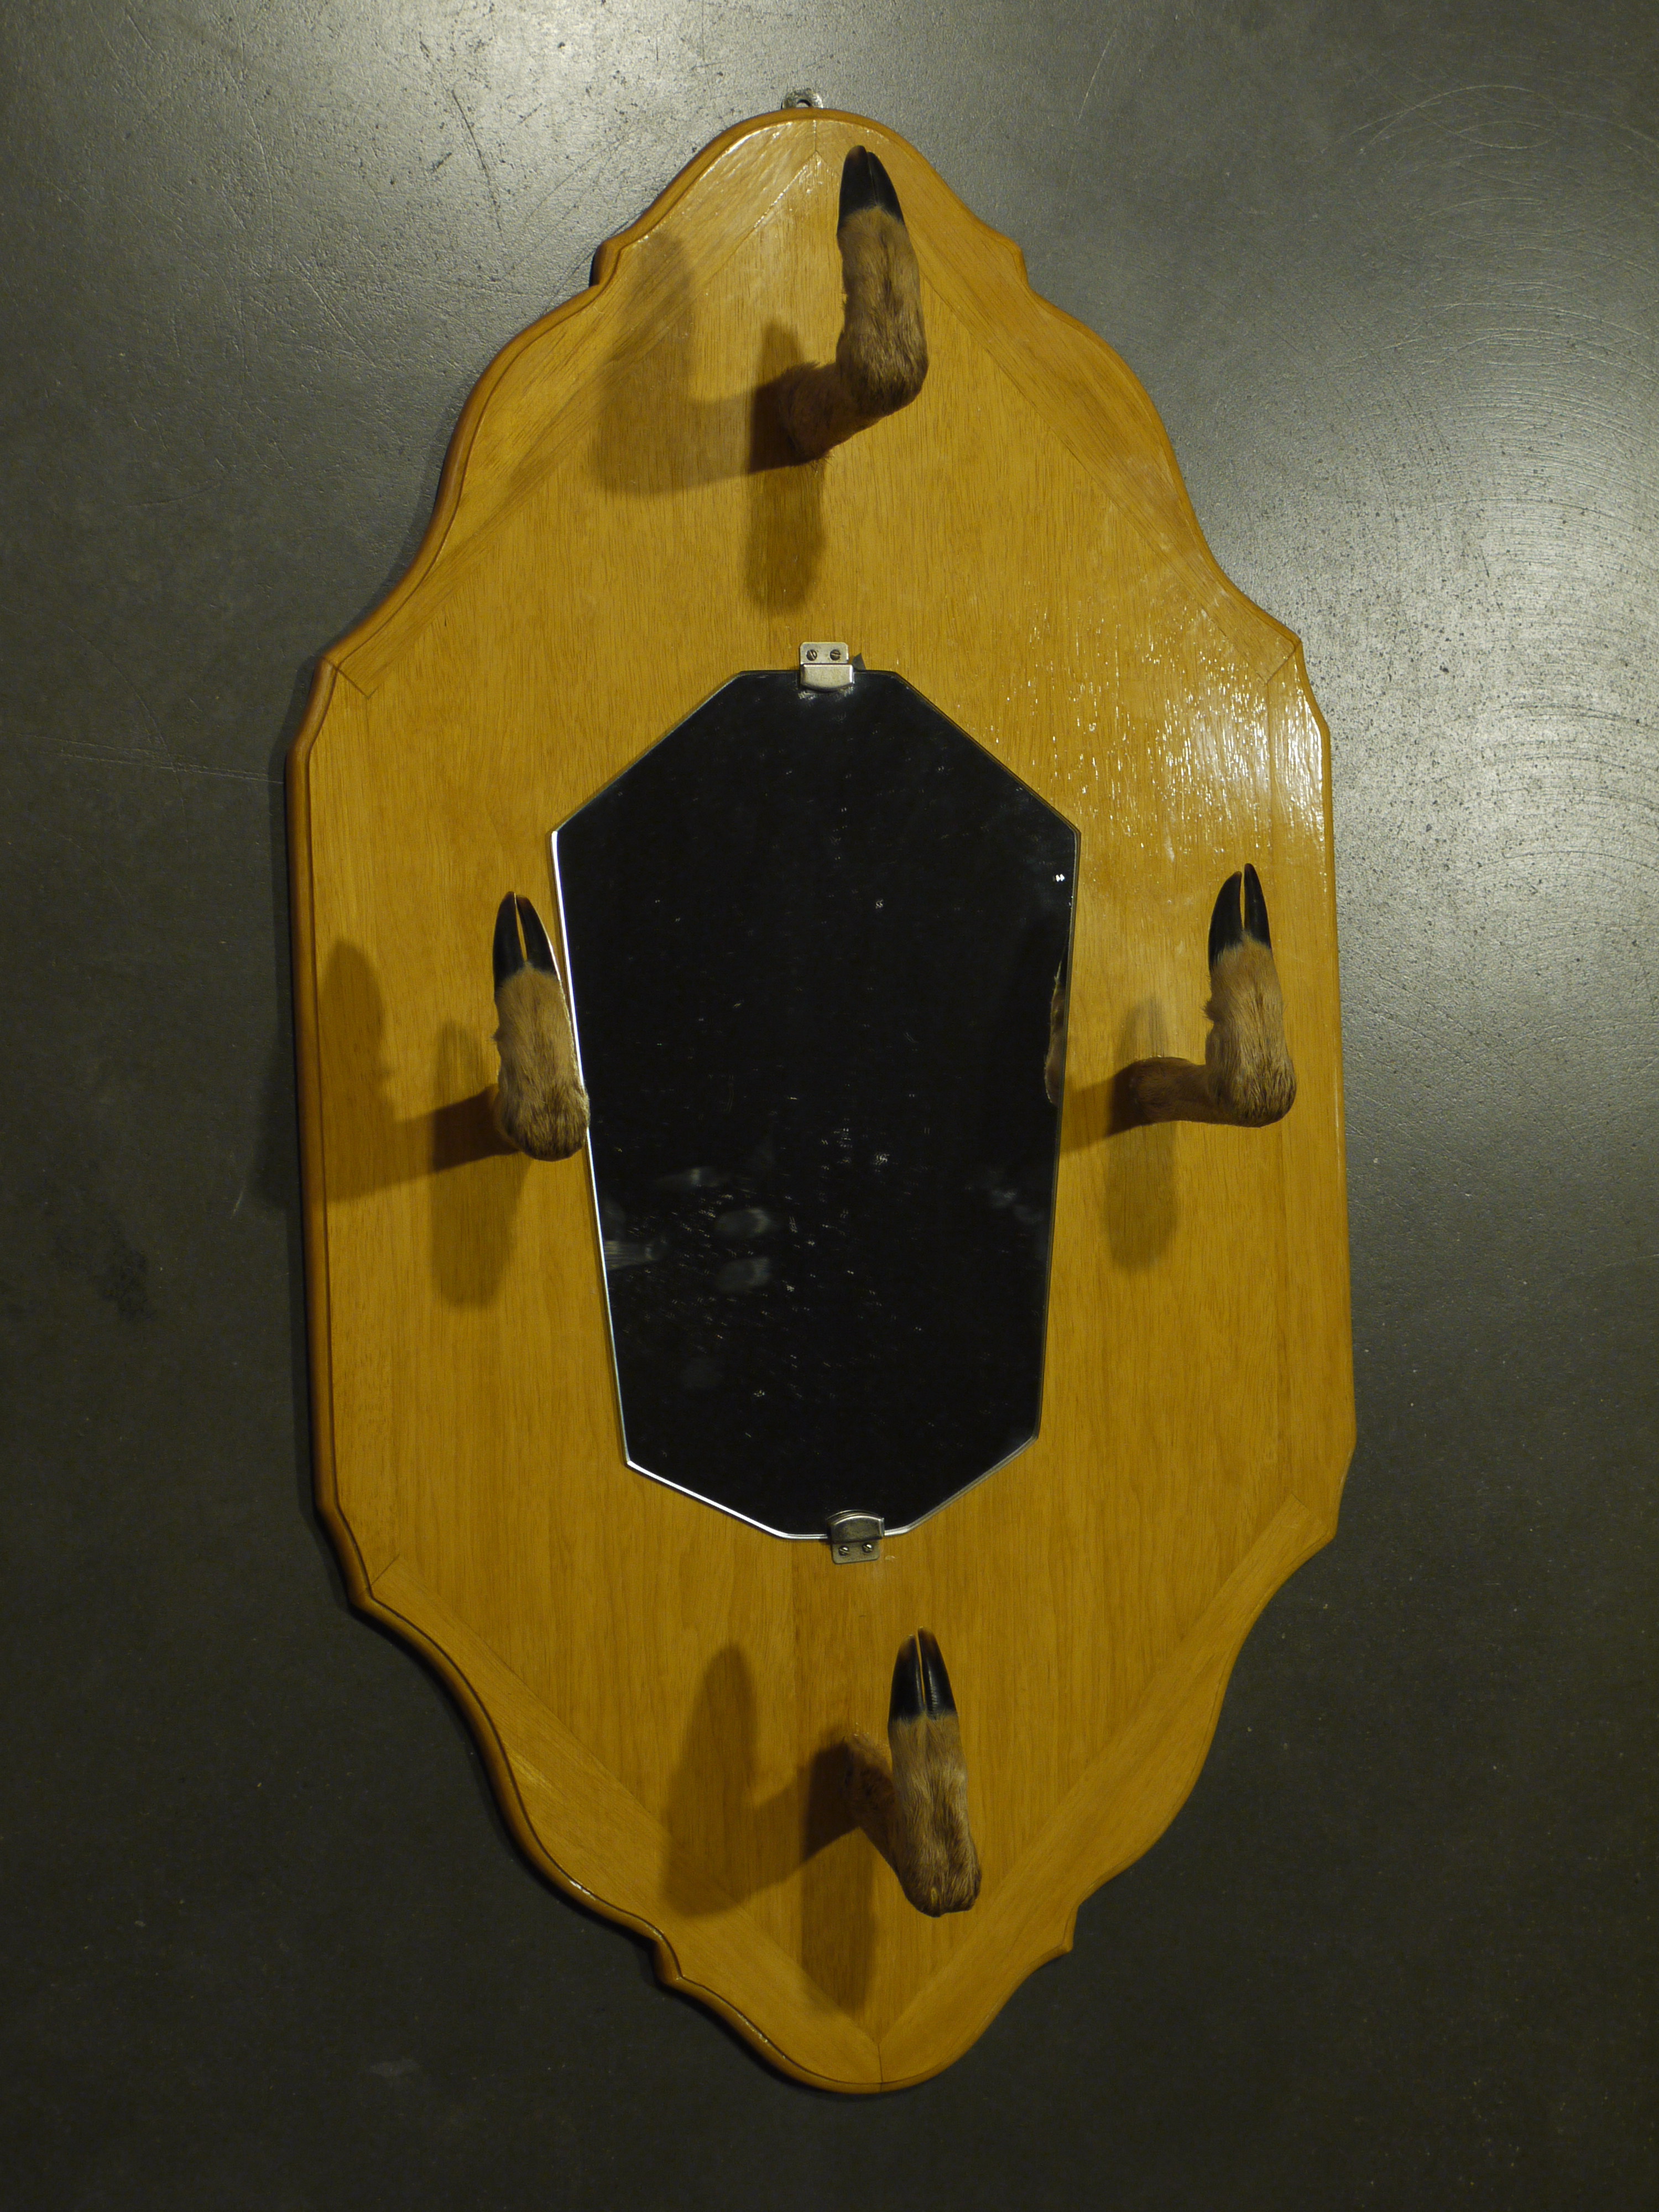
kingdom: Animalia
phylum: Chordata
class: Mammalia
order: Artiodactyla
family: Cervidae
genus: Capreolus
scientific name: Capreolus capreolus
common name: Western roe deer
